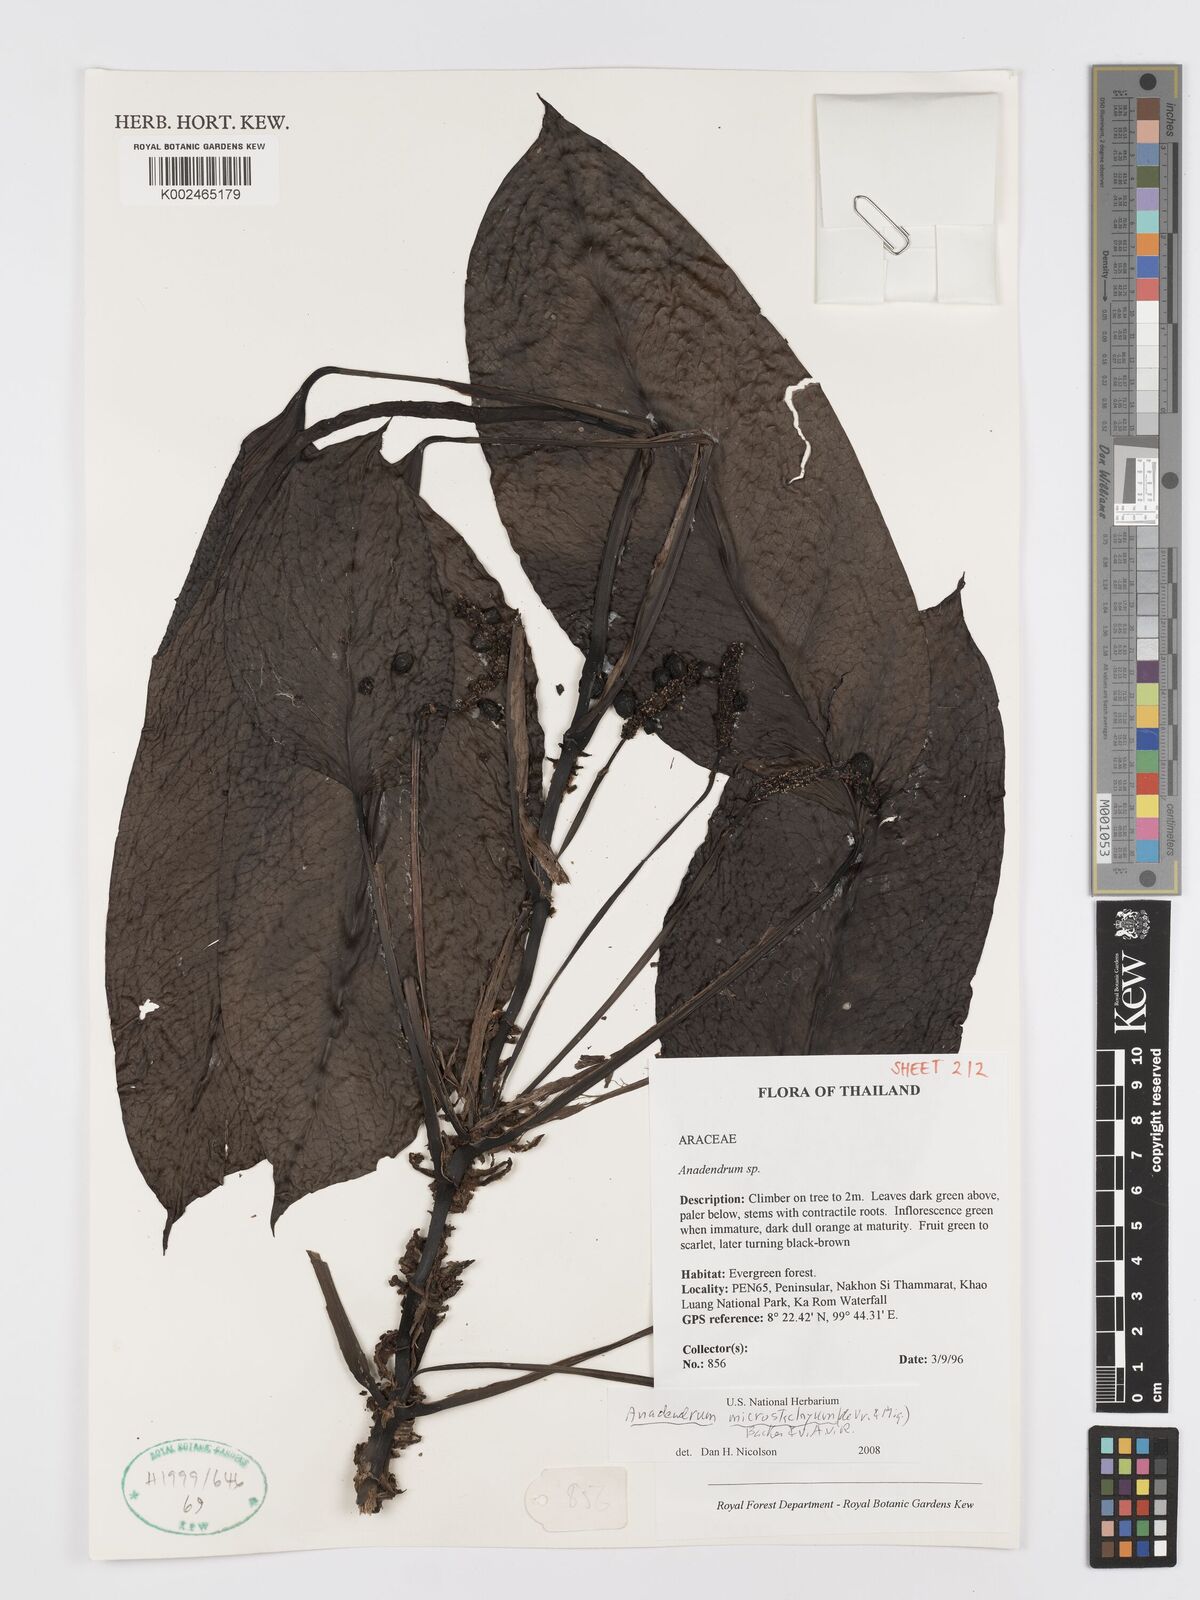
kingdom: Plantae
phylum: Tracheophyta
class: Liliopsida
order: Alismatales
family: Araceae
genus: Anadendrum
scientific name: Anadendrum microstachyum
